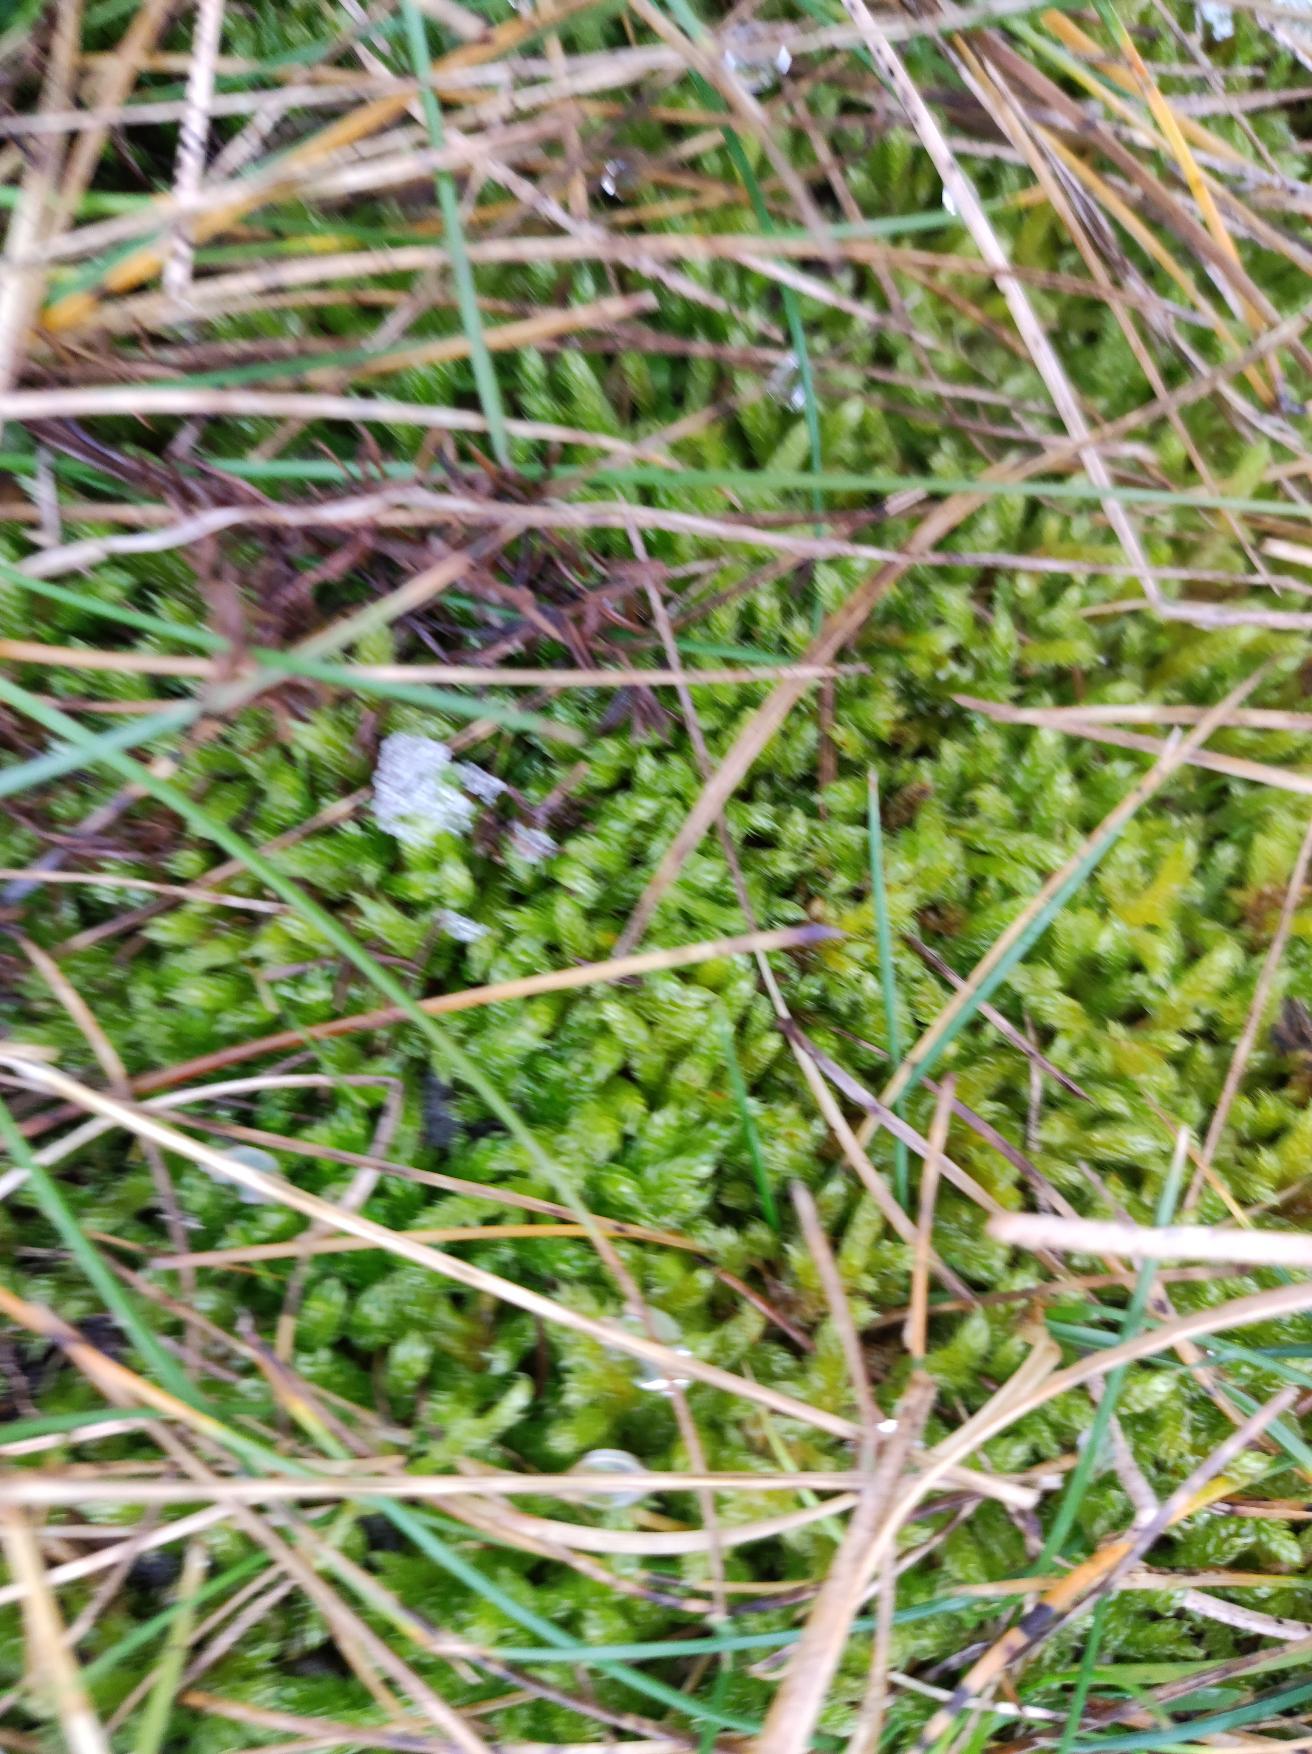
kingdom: Plantae
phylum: Bryophyta
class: Bryopsida
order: Hypnales
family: Hypnaceae
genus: Hypnum
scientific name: Hypnum cupressiforme
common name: Almindelig cypresmos
